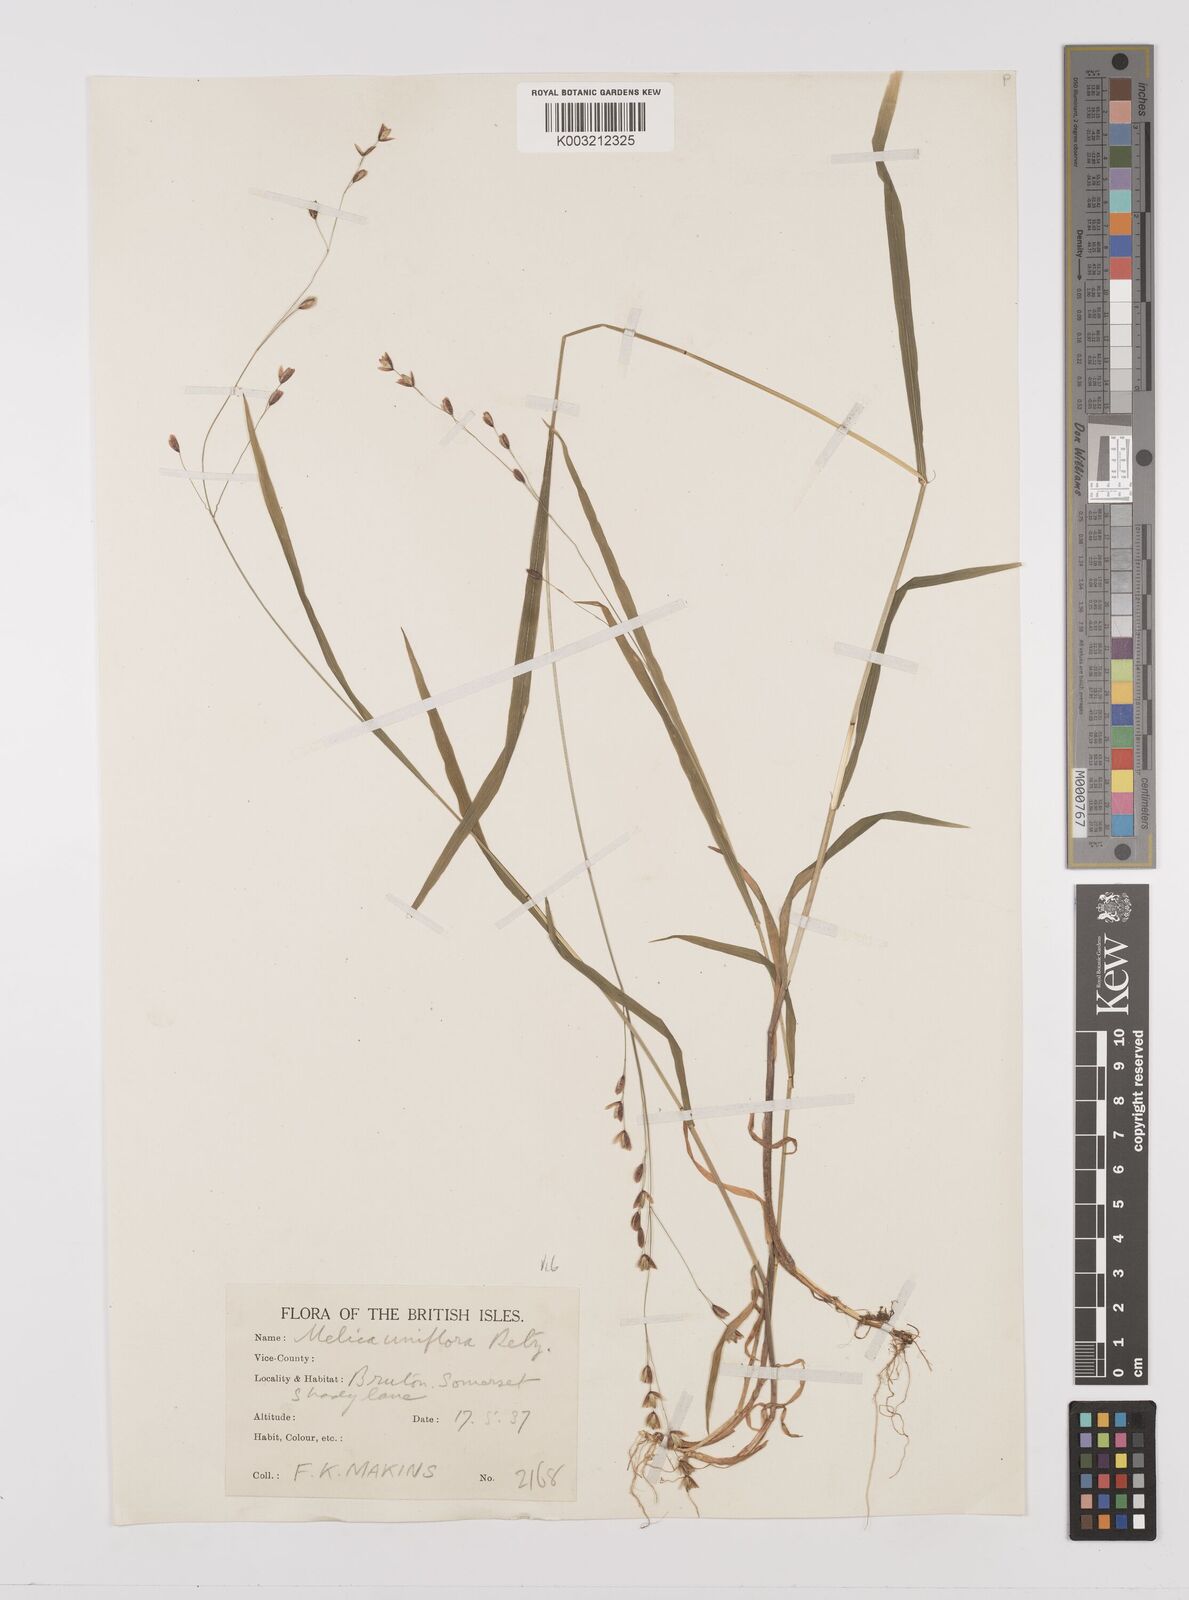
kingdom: Plantae
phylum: Tracheophyta
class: Liliopsida
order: Poales
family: Poaceae
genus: Melica
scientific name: Melica uniflora
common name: Wood melick
